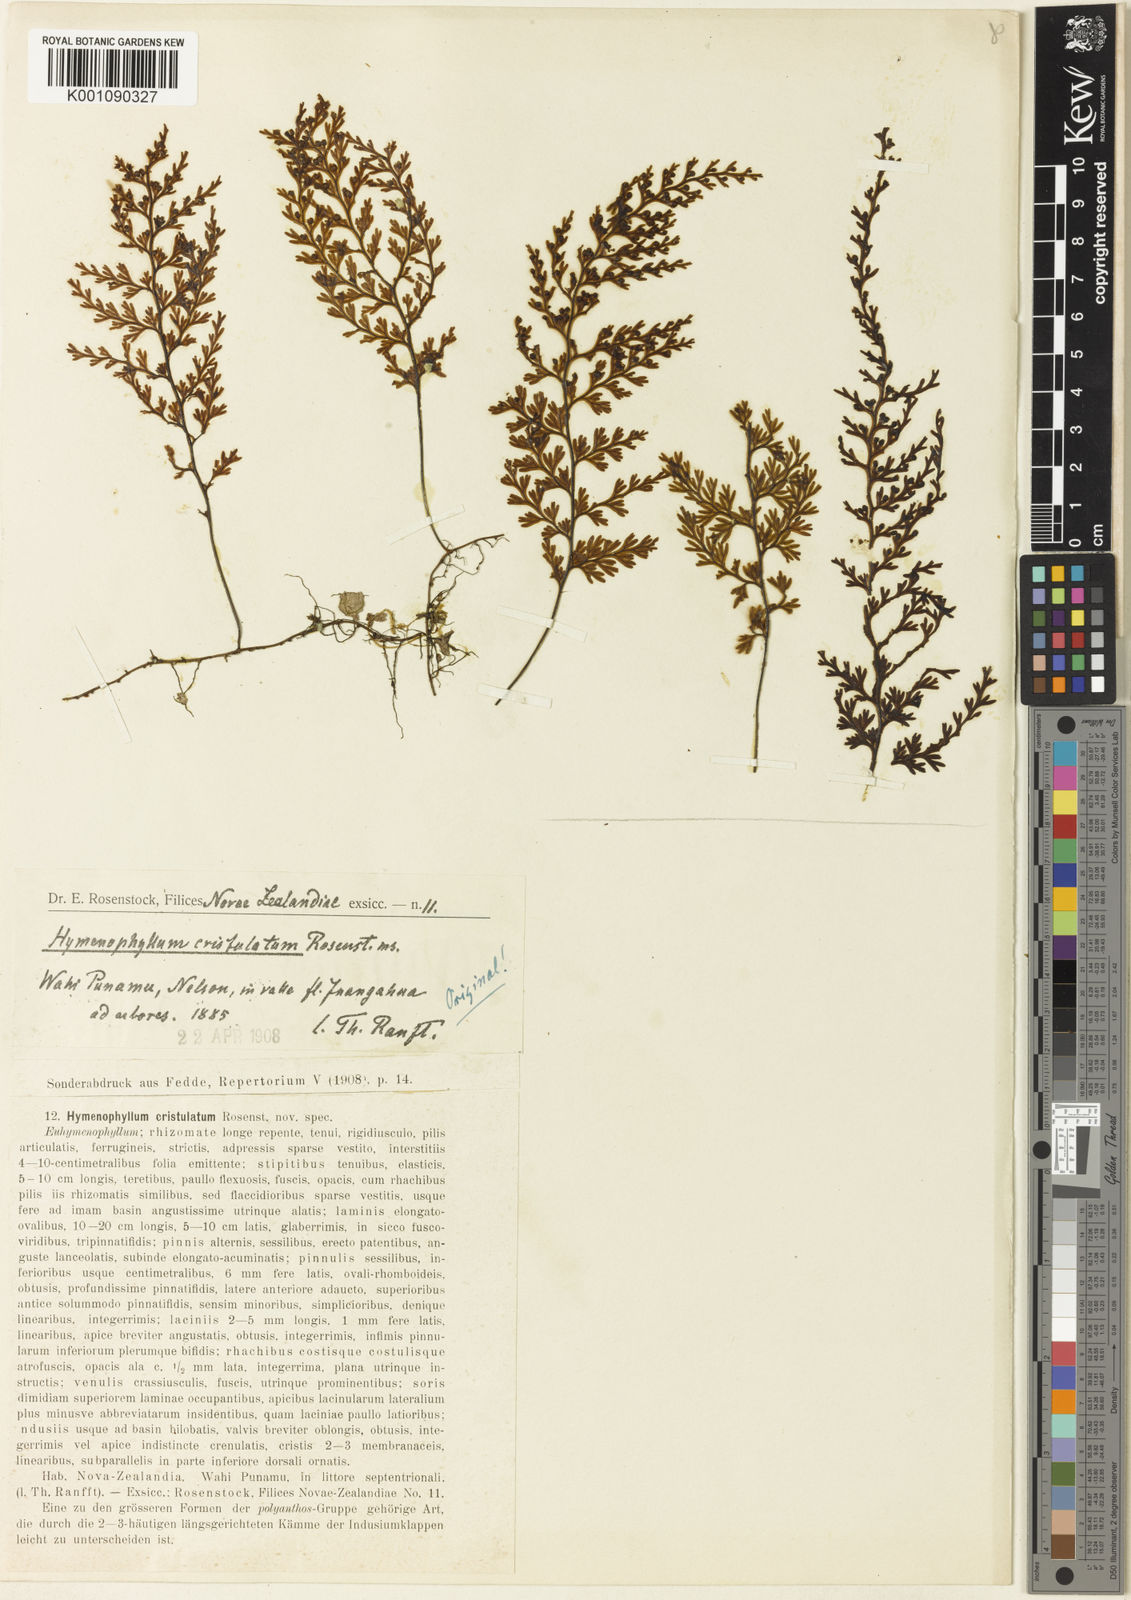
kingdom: Plantae
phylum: Tracheophyta
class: Polypodiopsida
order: Hymenophyllales
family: Hymenophyllaceae
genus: Hymenophyllum
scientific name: Hymenophyllum sanguinolentum
